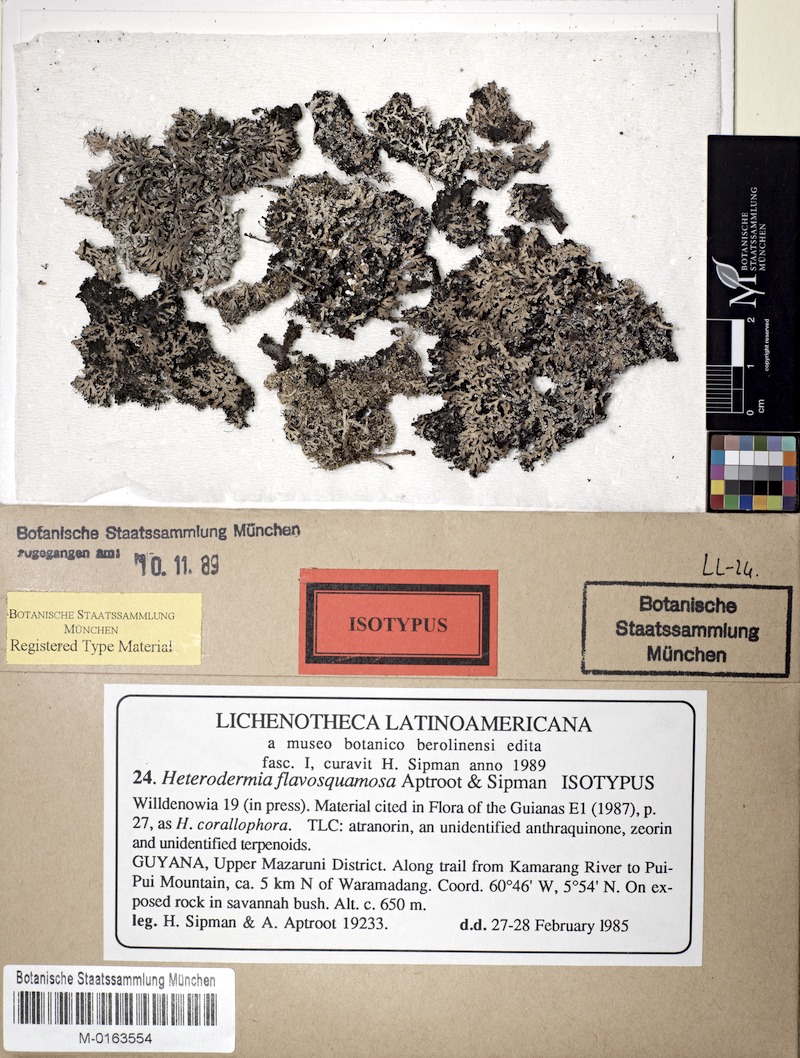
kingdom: Fungi
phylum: Ascomycota
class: Lecanoromycetes
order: Caliciales
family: Physciaceae
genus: Heterodermia
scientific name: Heterodermia flavosquamosa
